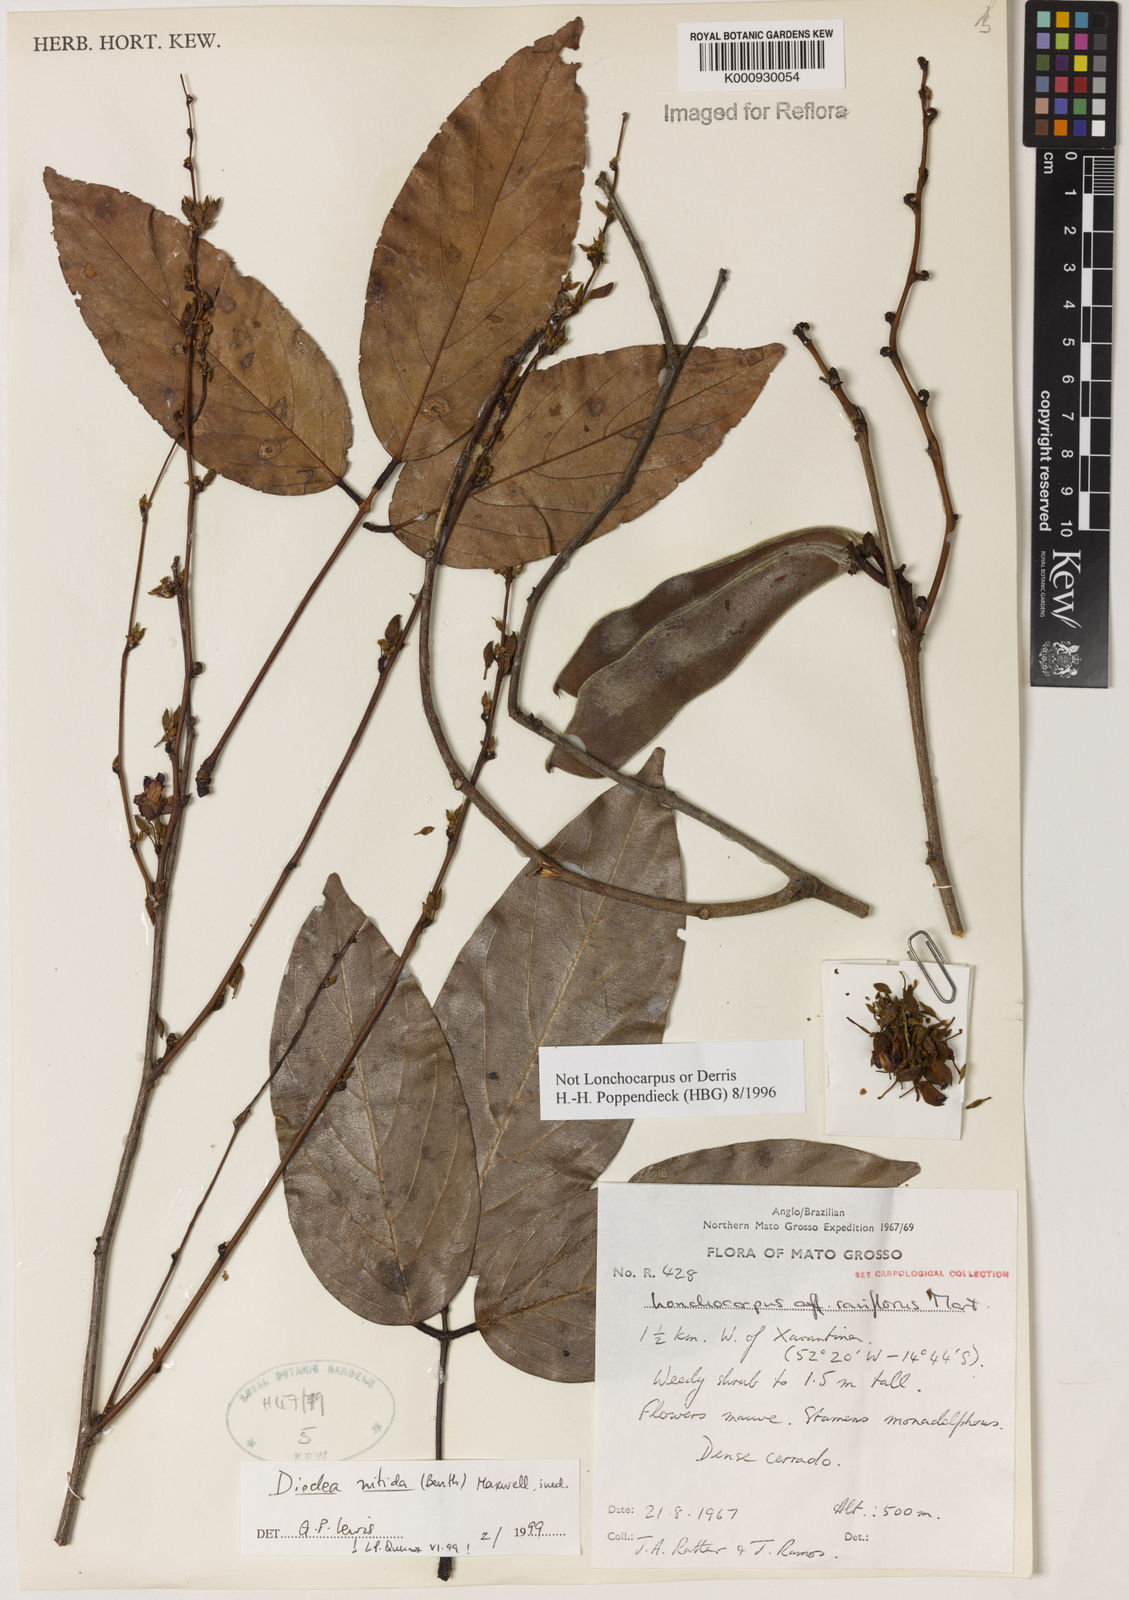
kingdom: Plantae
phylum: Tracheophyta
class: Magnoliopsida
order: Fabales
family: Fabaceae
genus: Dioclea
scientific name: Dioclea
